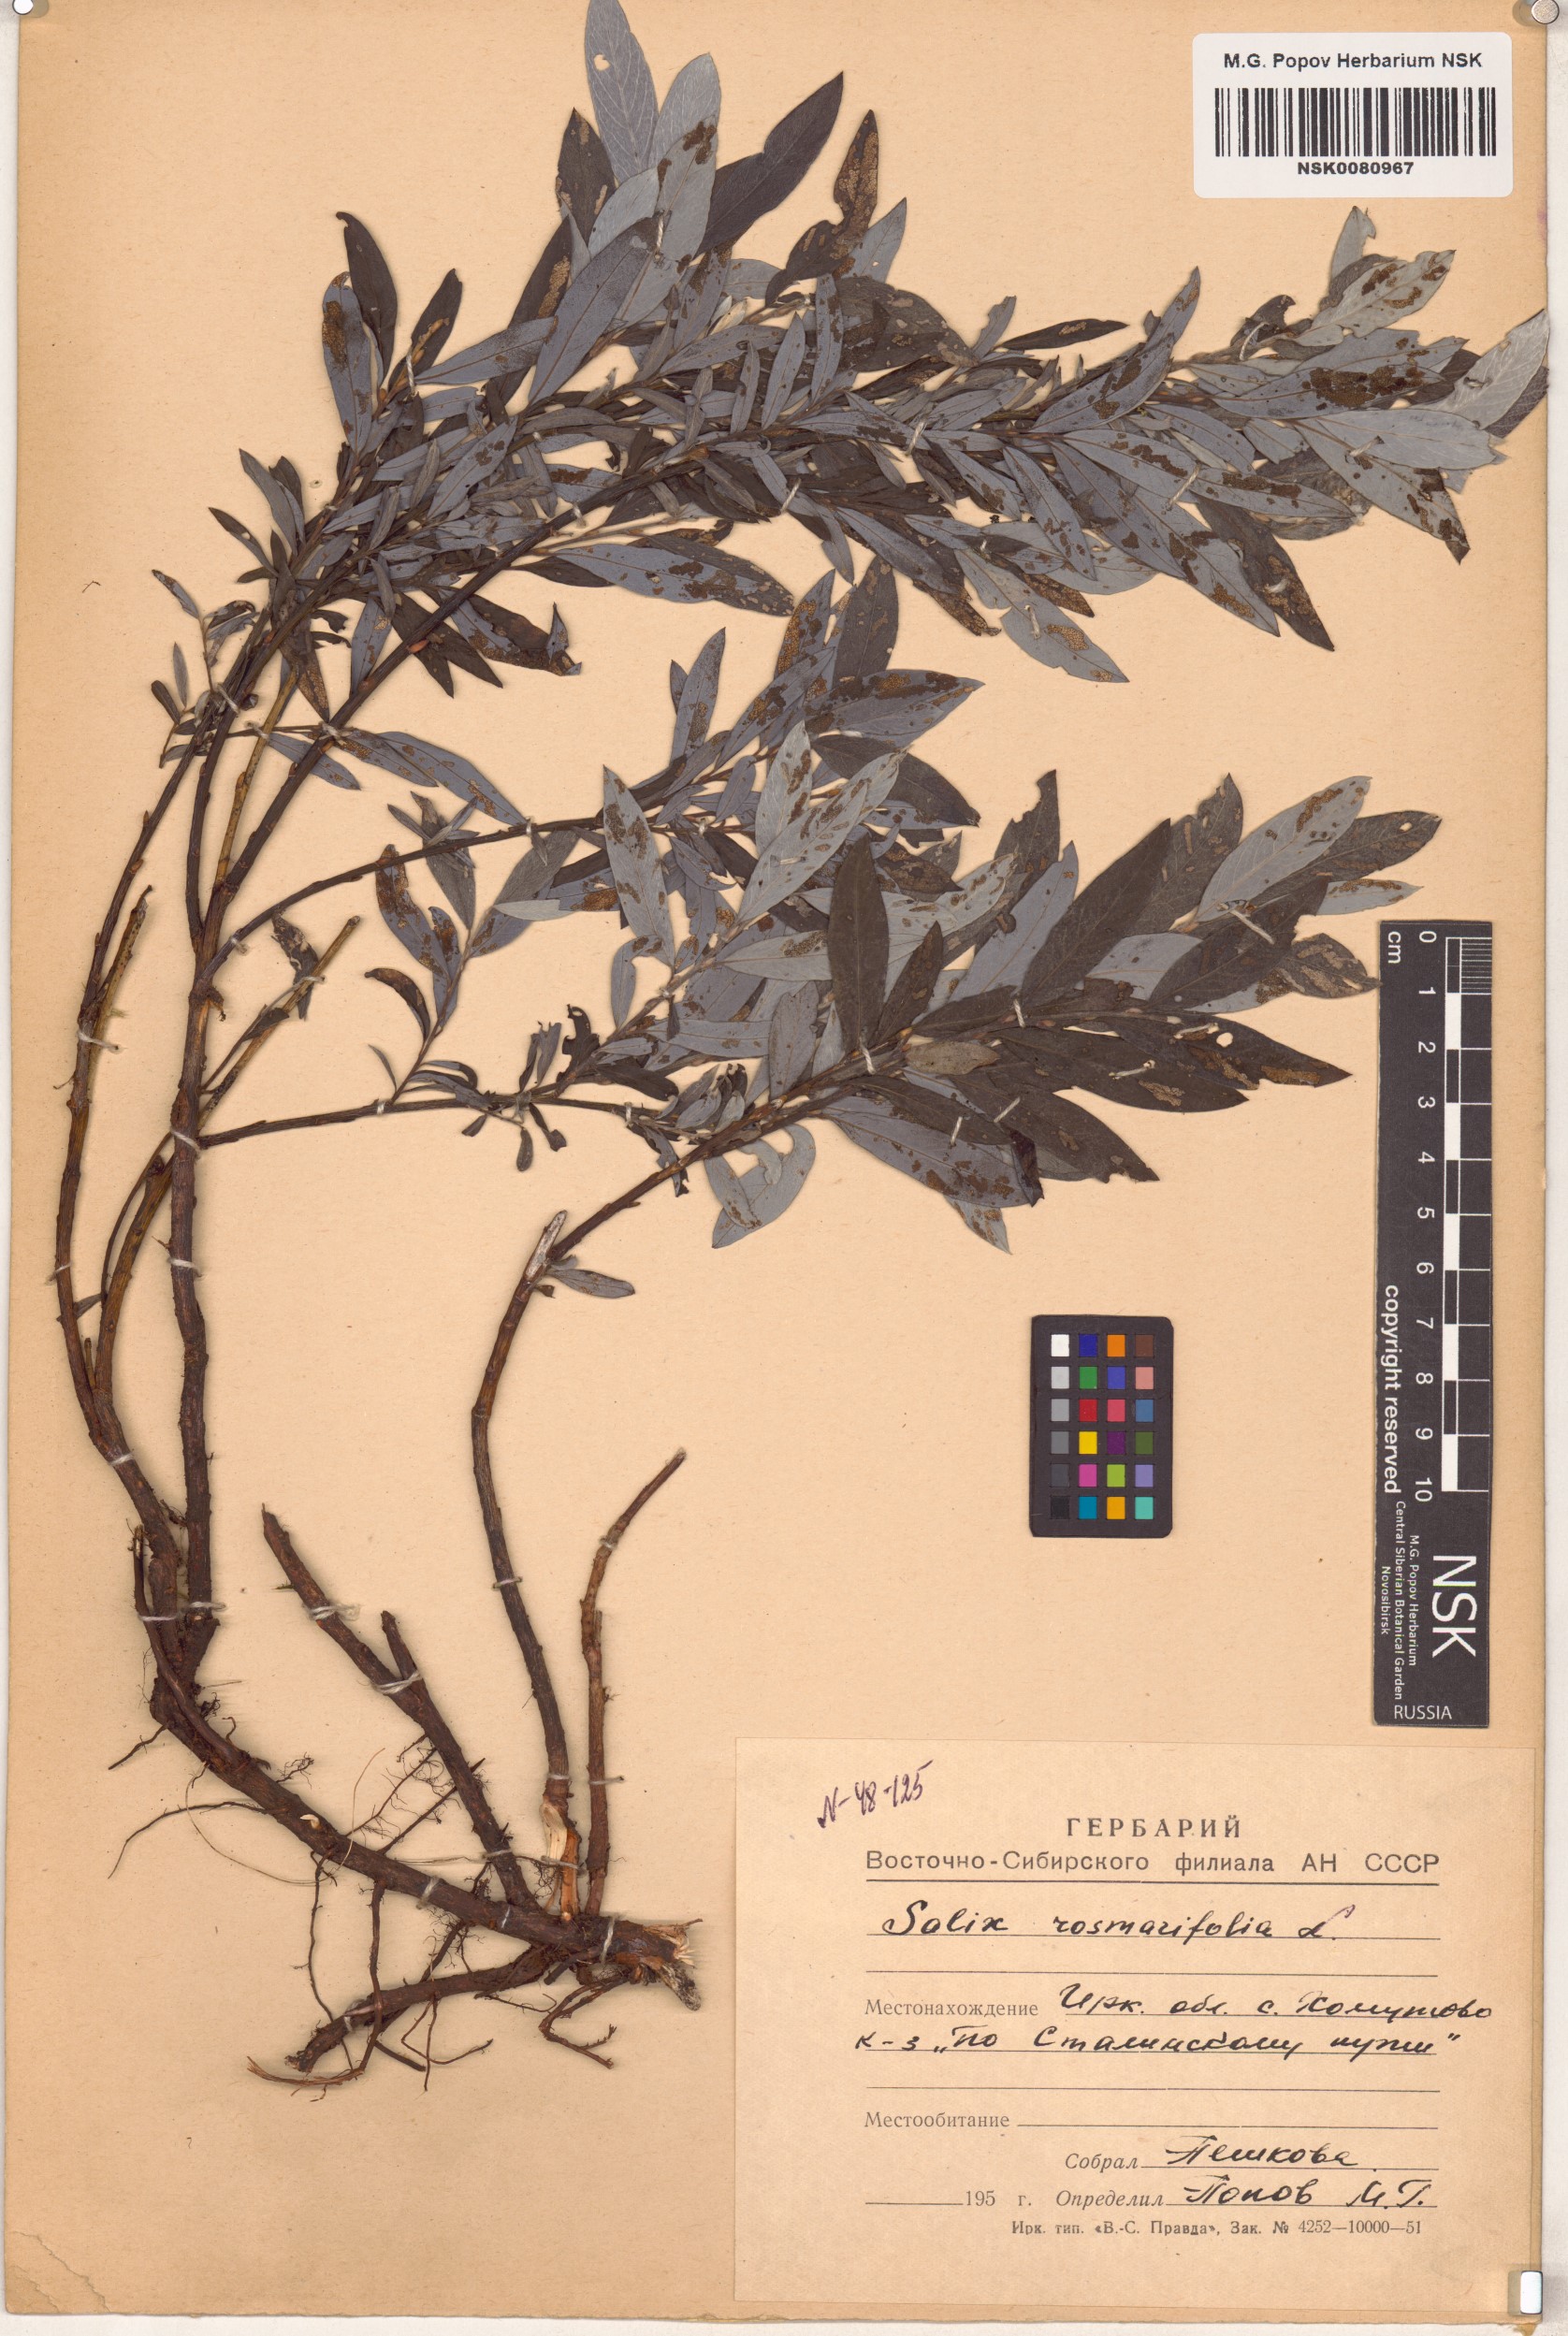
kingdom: Plantae
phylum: Tracheophyta
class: Magnoliopsida
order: Malpighiales
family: Salicaceae
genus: Salix
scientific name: Salix rosmarinifolia
